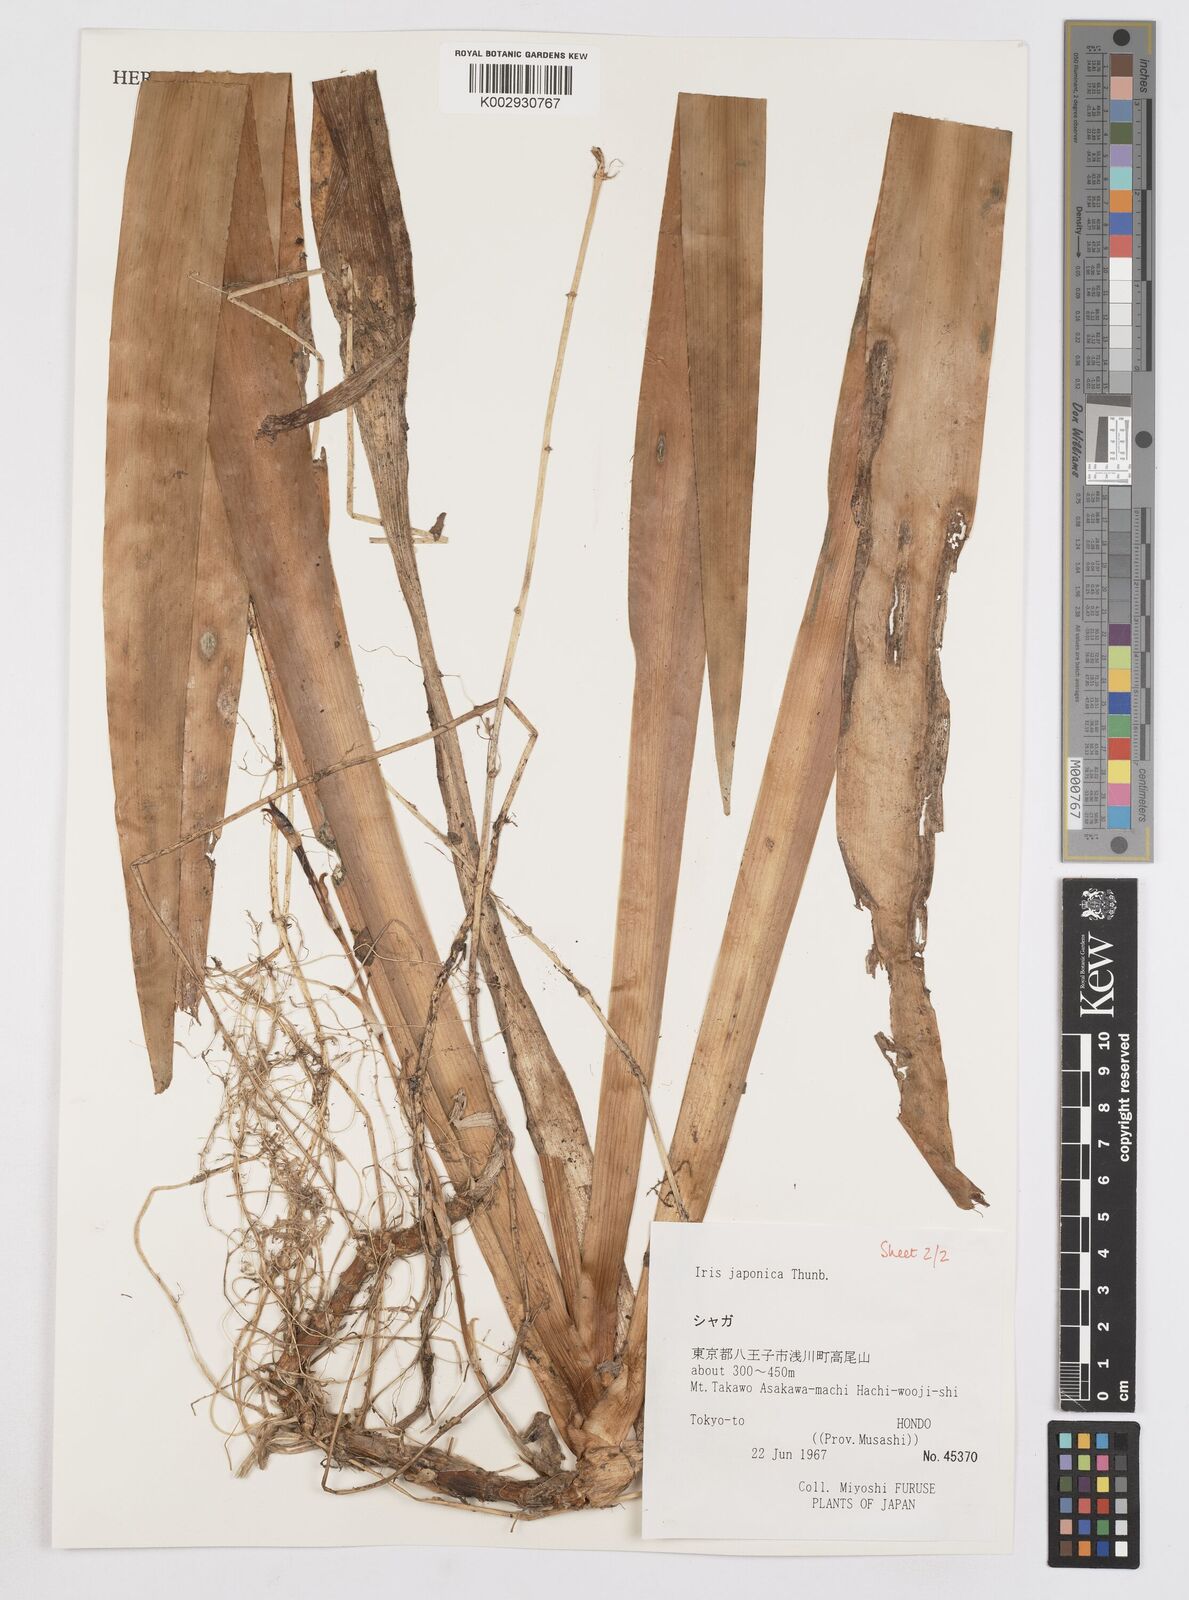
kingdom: Plantae
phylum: Tracheophyta
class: Liliopsida
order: Asparagales
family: Iridaceae
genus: Iris
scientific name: Iris japonica
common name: Butterfly-flower
